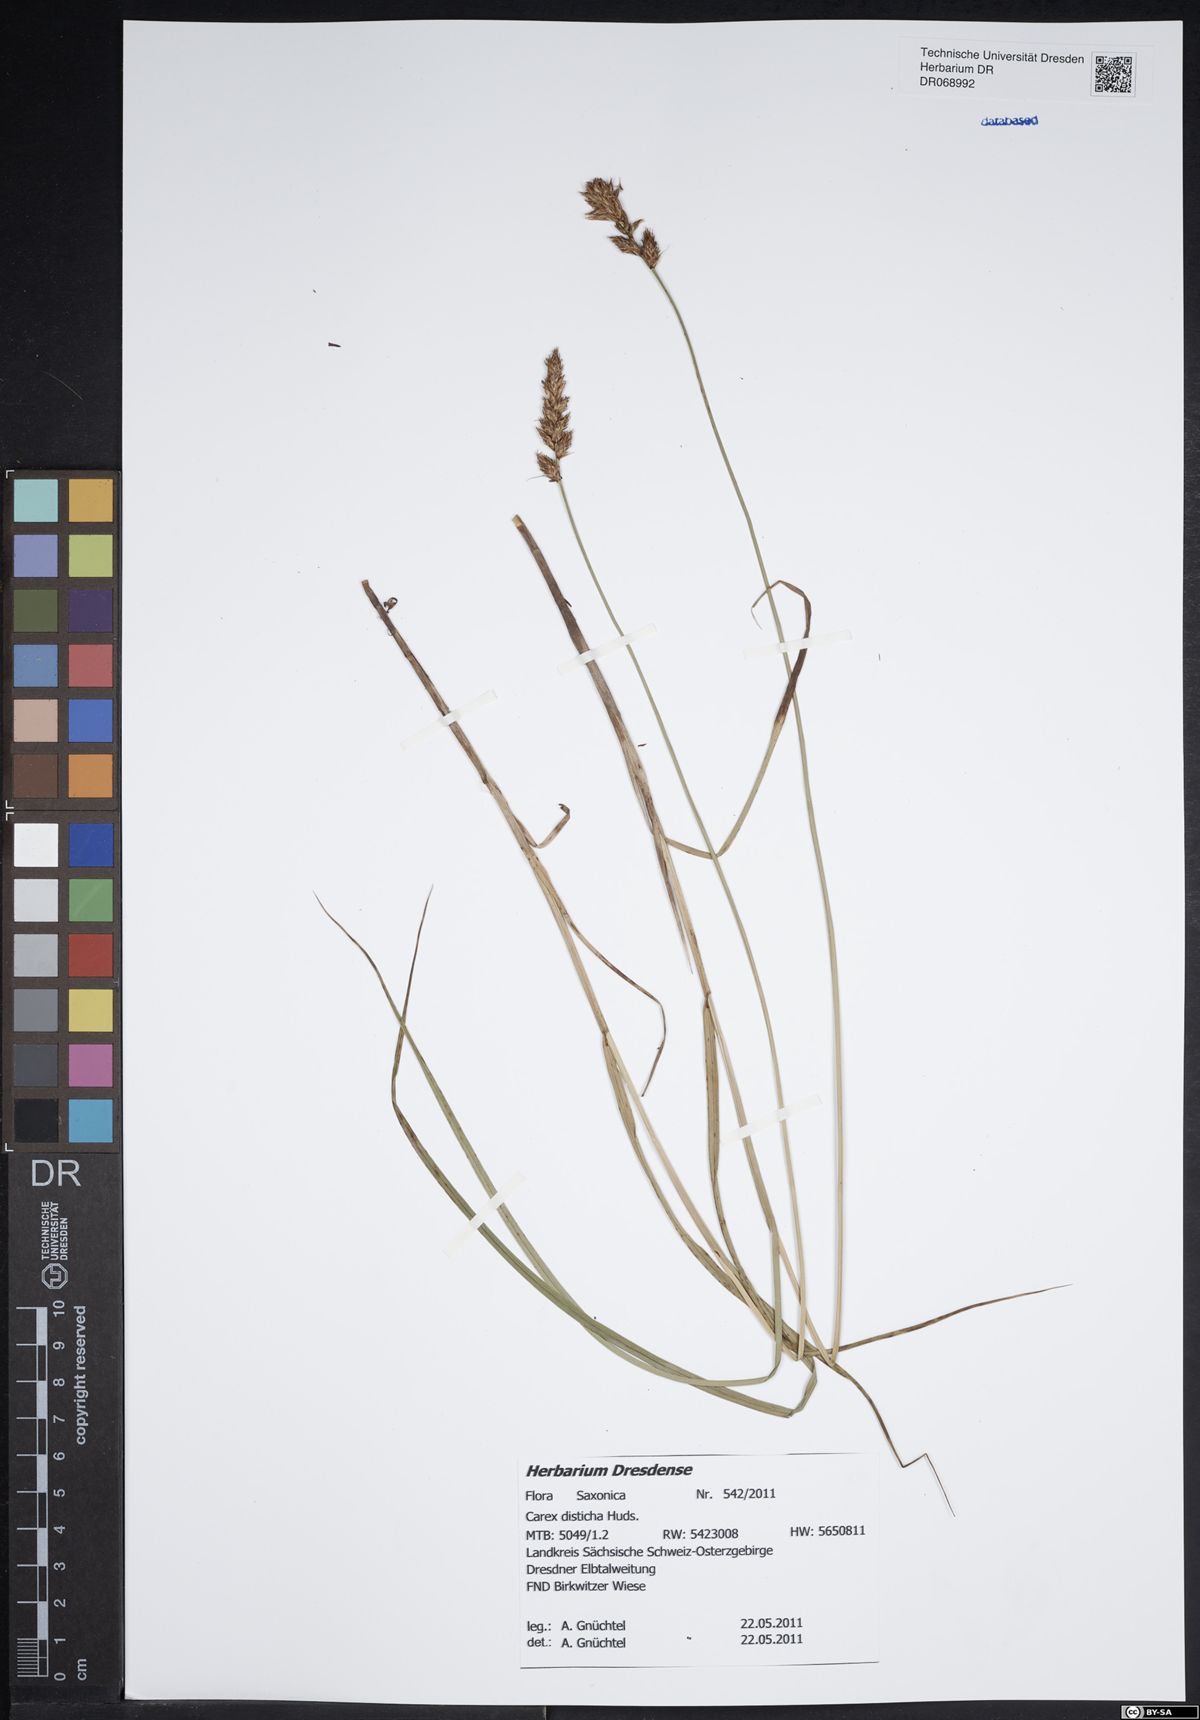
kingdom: Plantae
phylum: Tracheophyta
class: Liliopsida
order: Poales
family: Cyperaceae
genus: Carex
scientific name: Carex disticha
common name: Brown sedge
